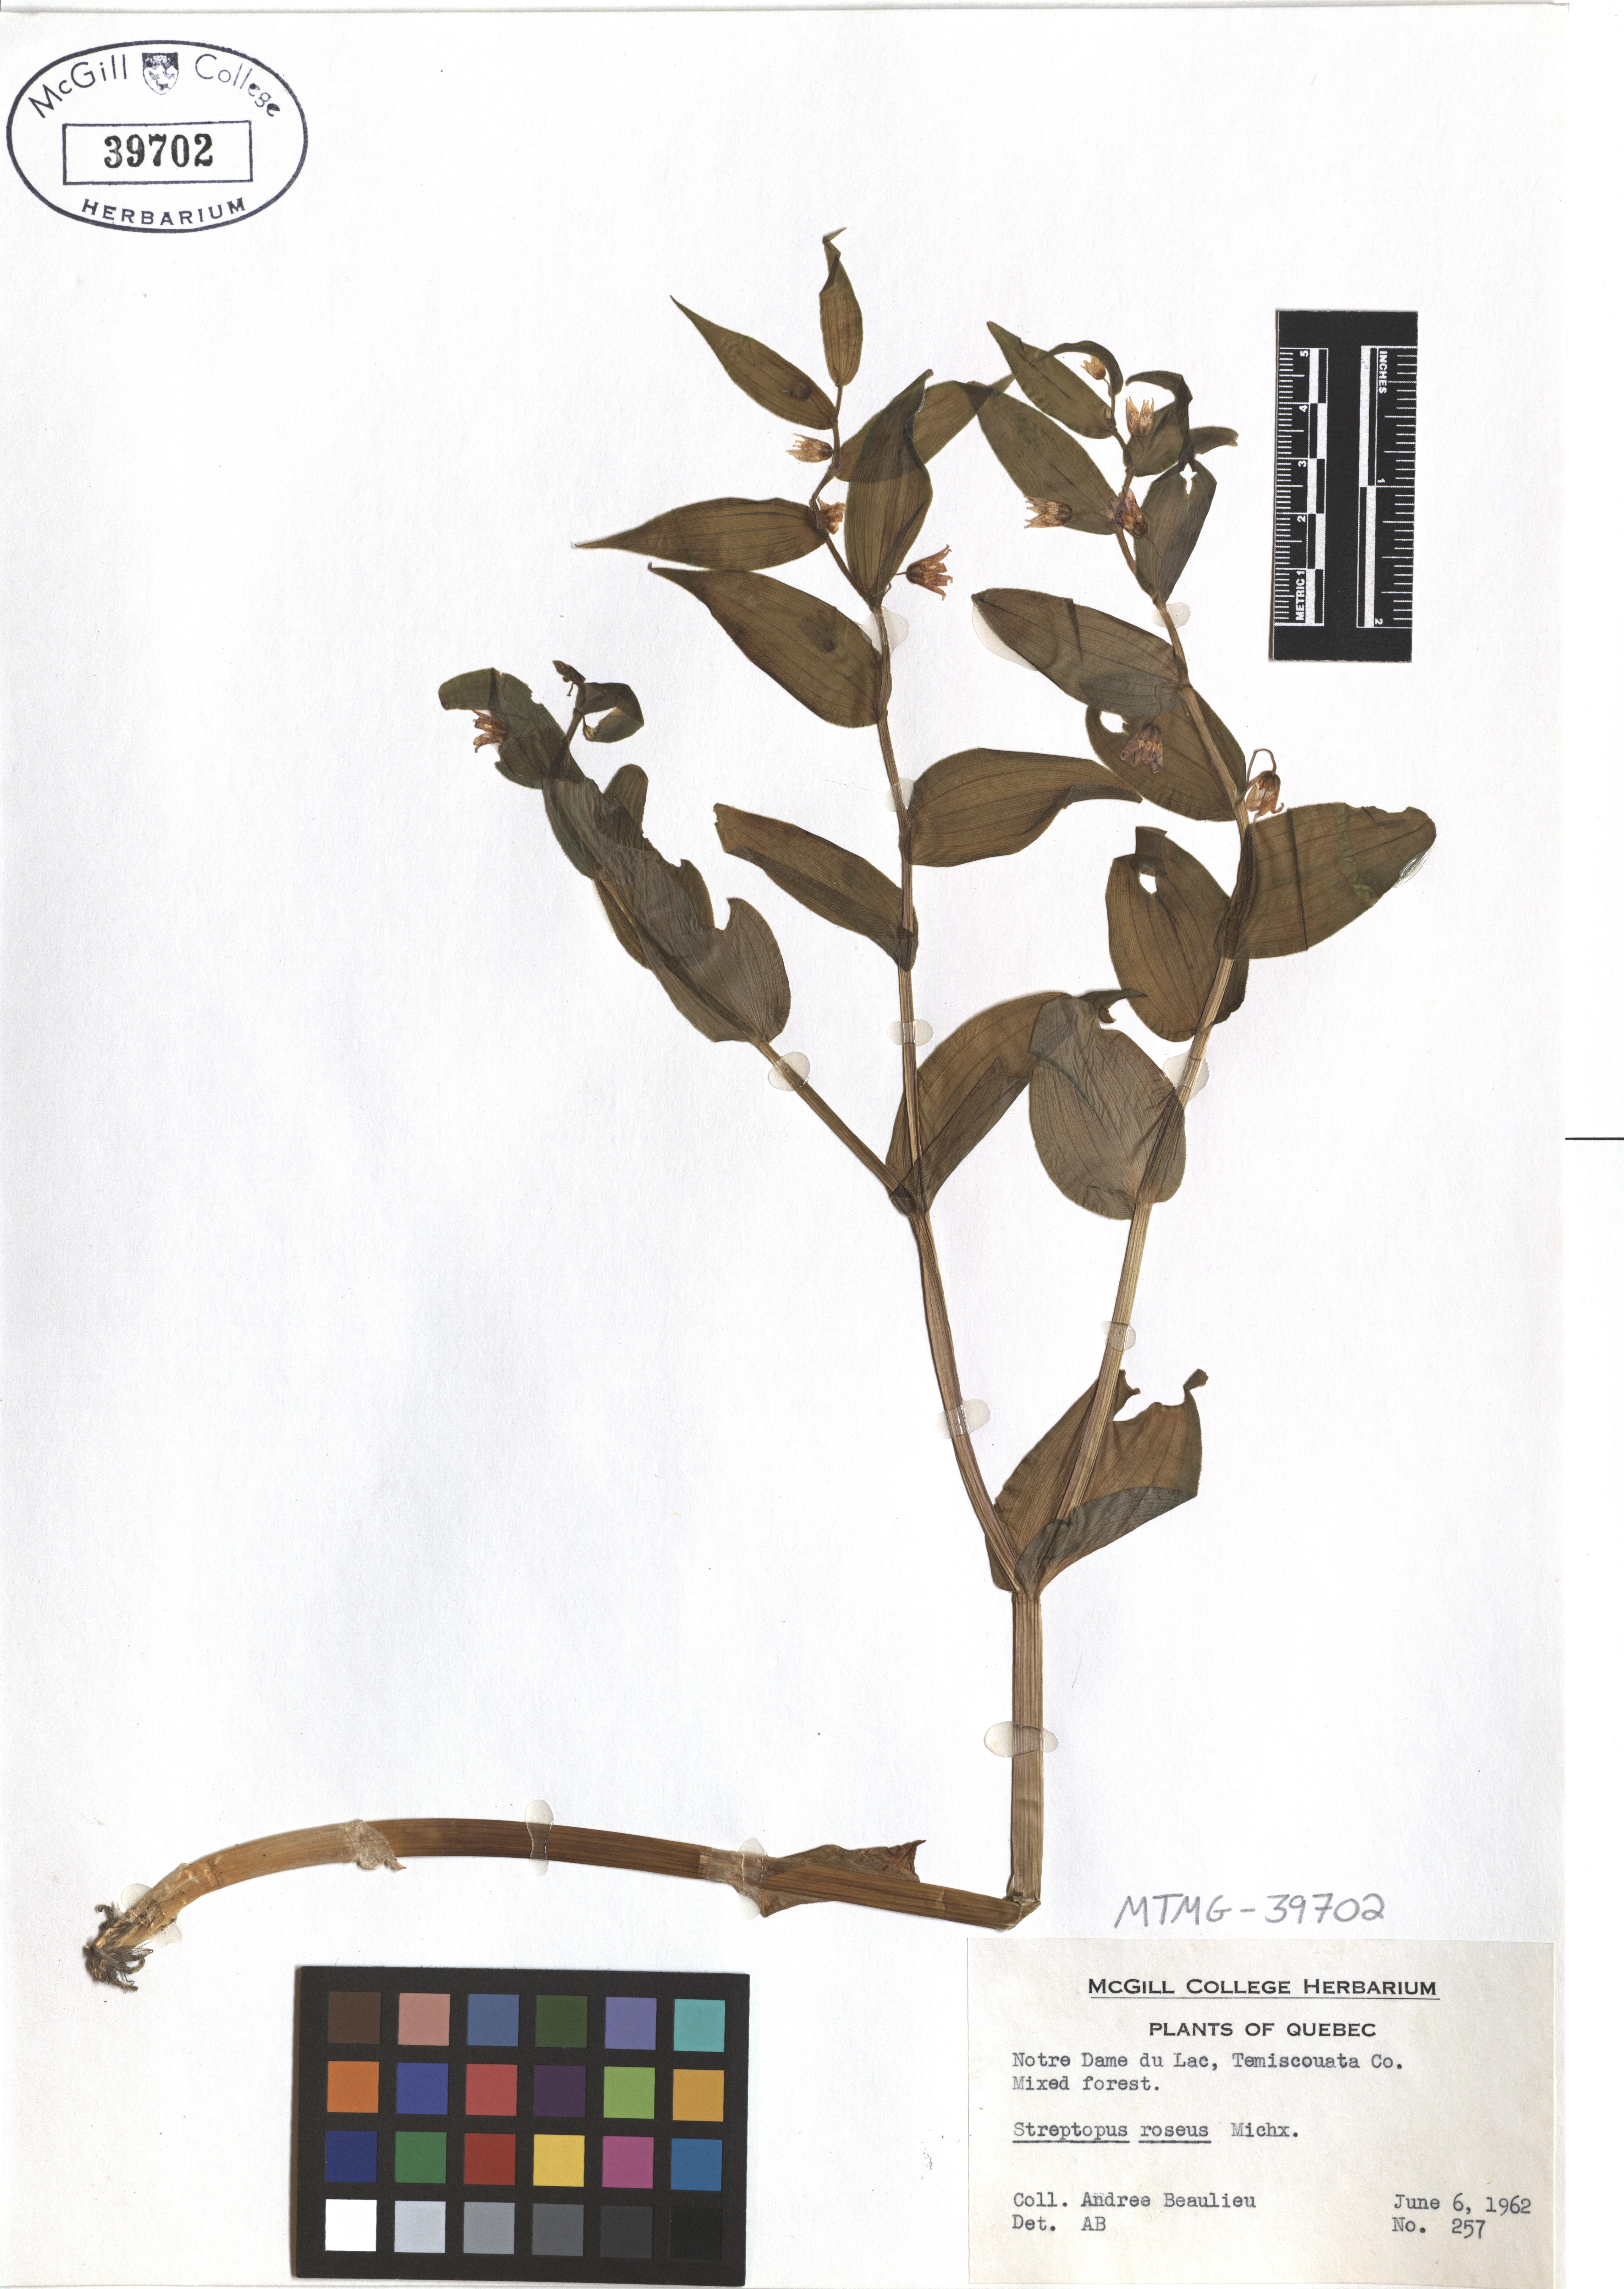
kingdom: Plantae
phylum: Tracheophyta
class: Liliopsida
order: Liliales
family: Liliaceae
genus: Streptopus
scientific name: Streptopus lanceolatus
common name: Rose mandarin
